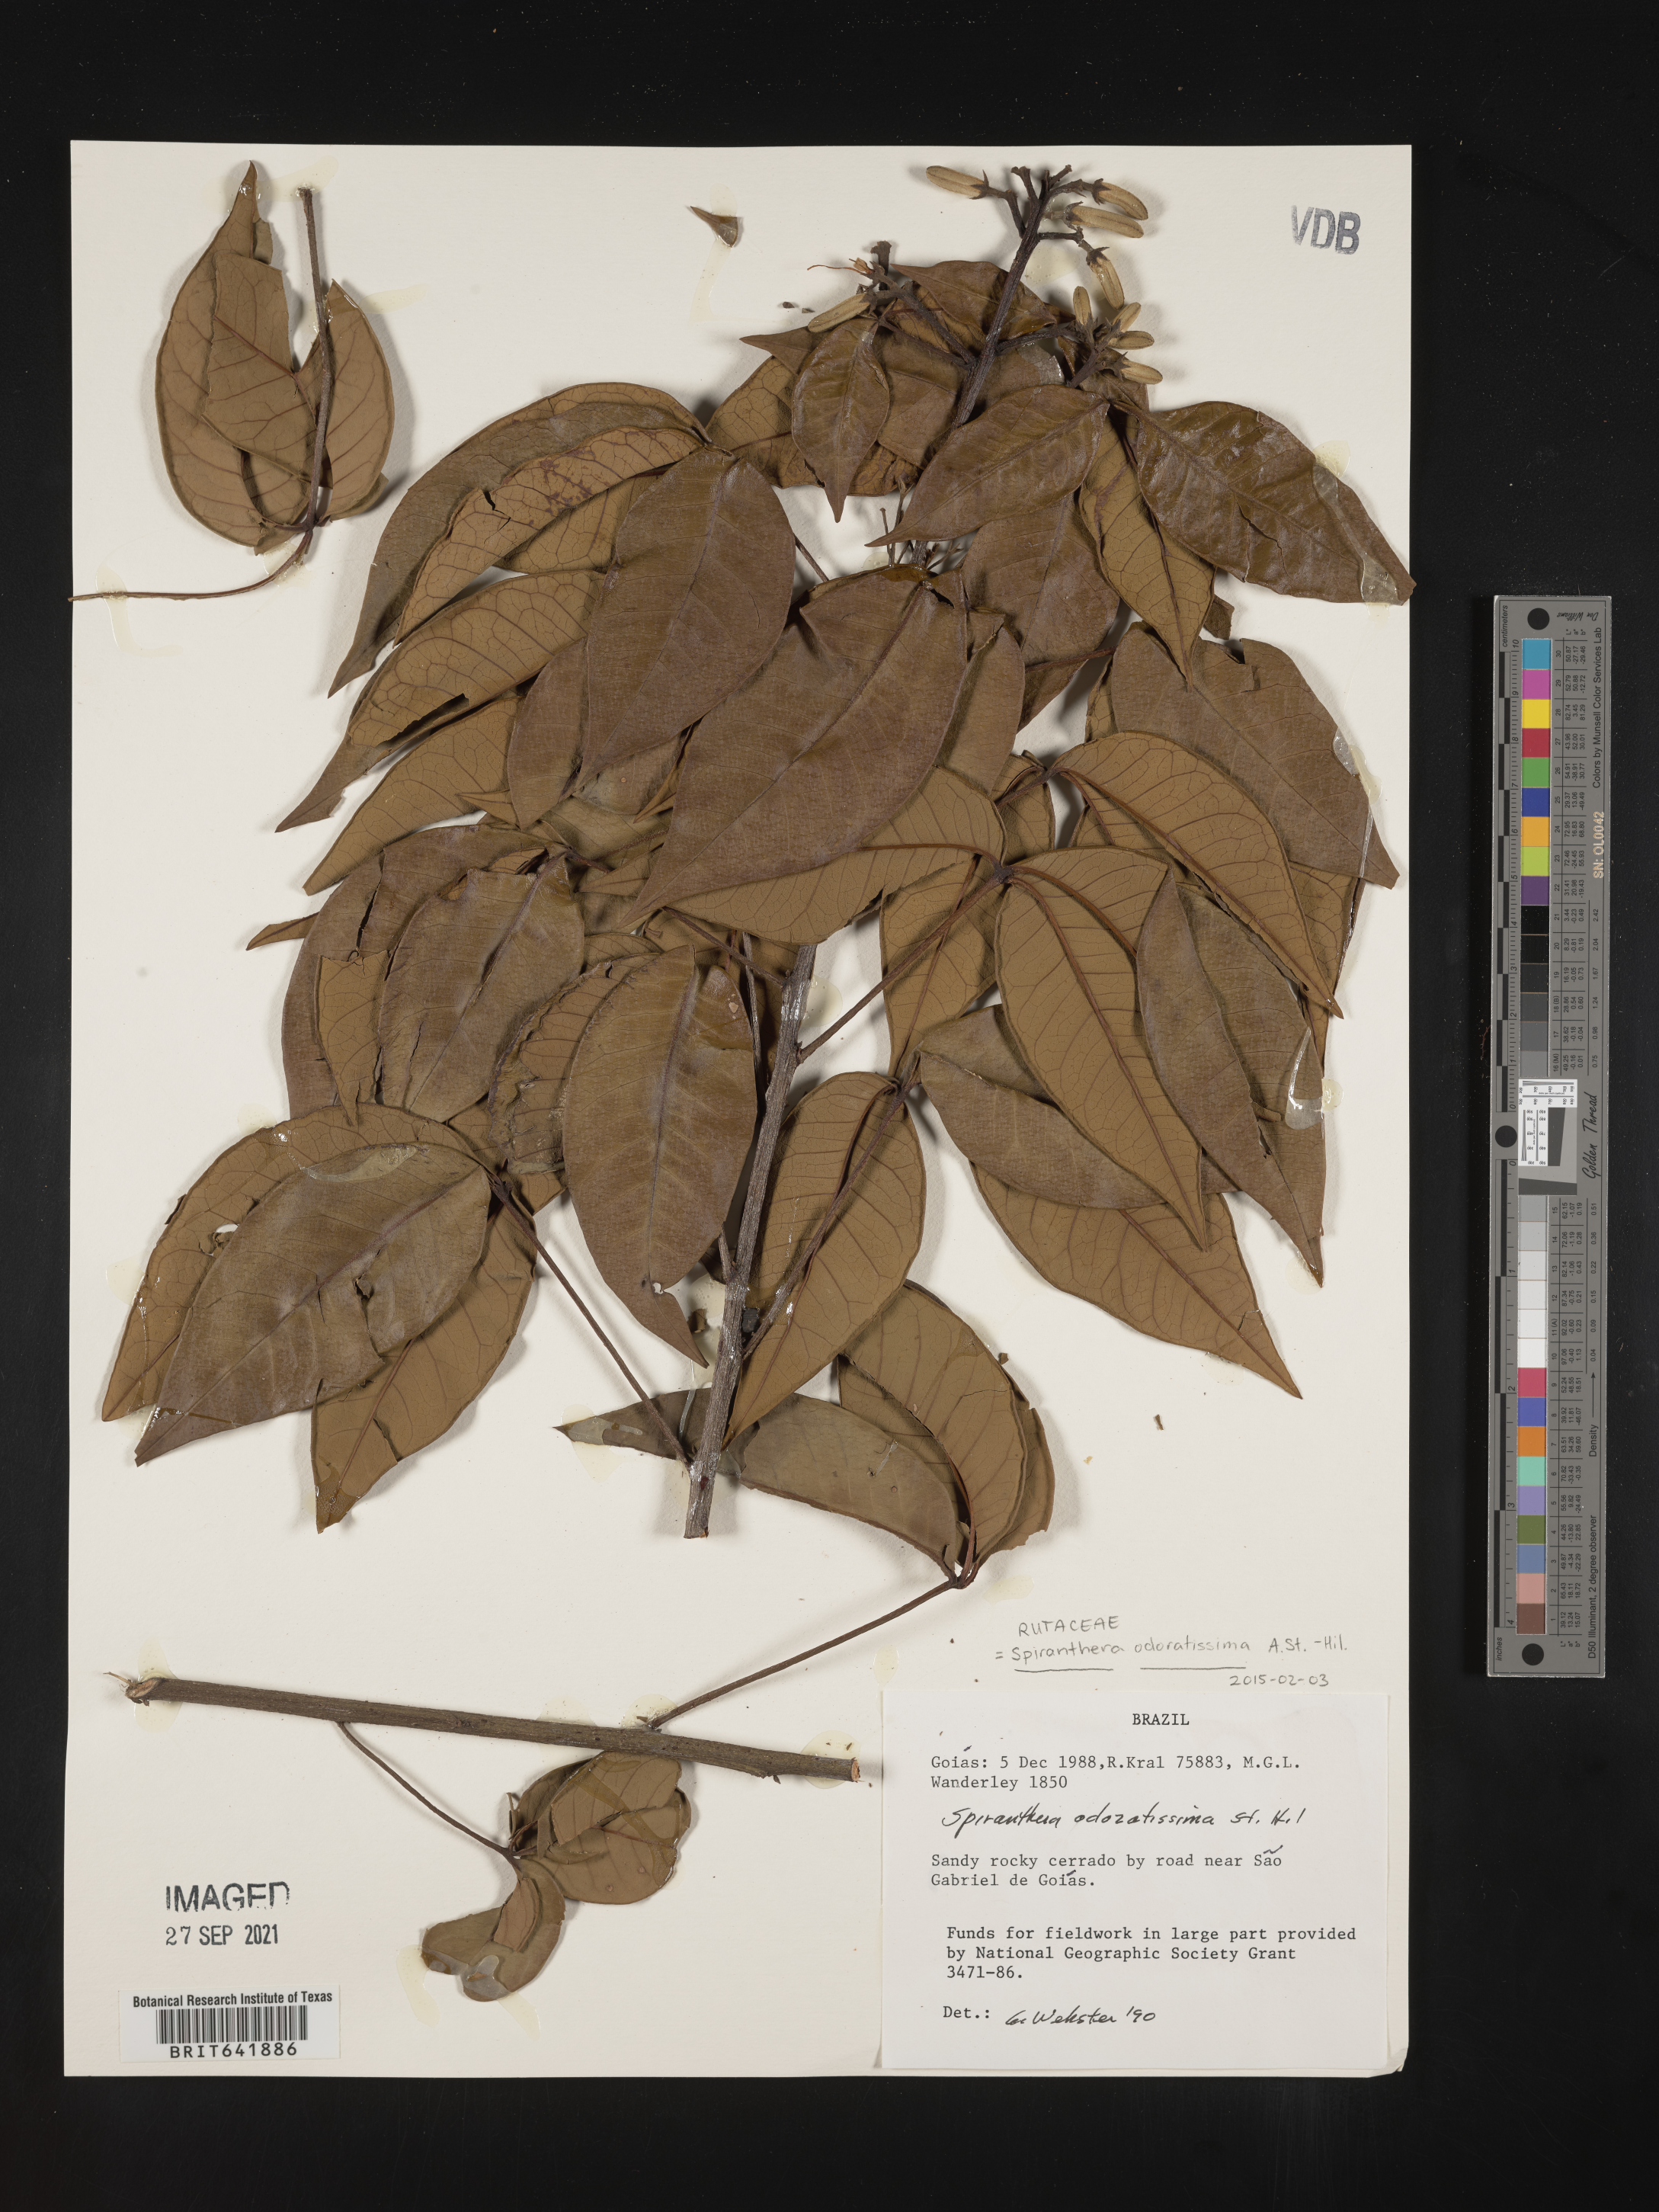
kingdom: Plantae
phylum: Tracheophyta
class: Magnoliopsida
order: Sapindales
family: Rutaceae
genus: Spiranthera
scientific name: Spiranthera
